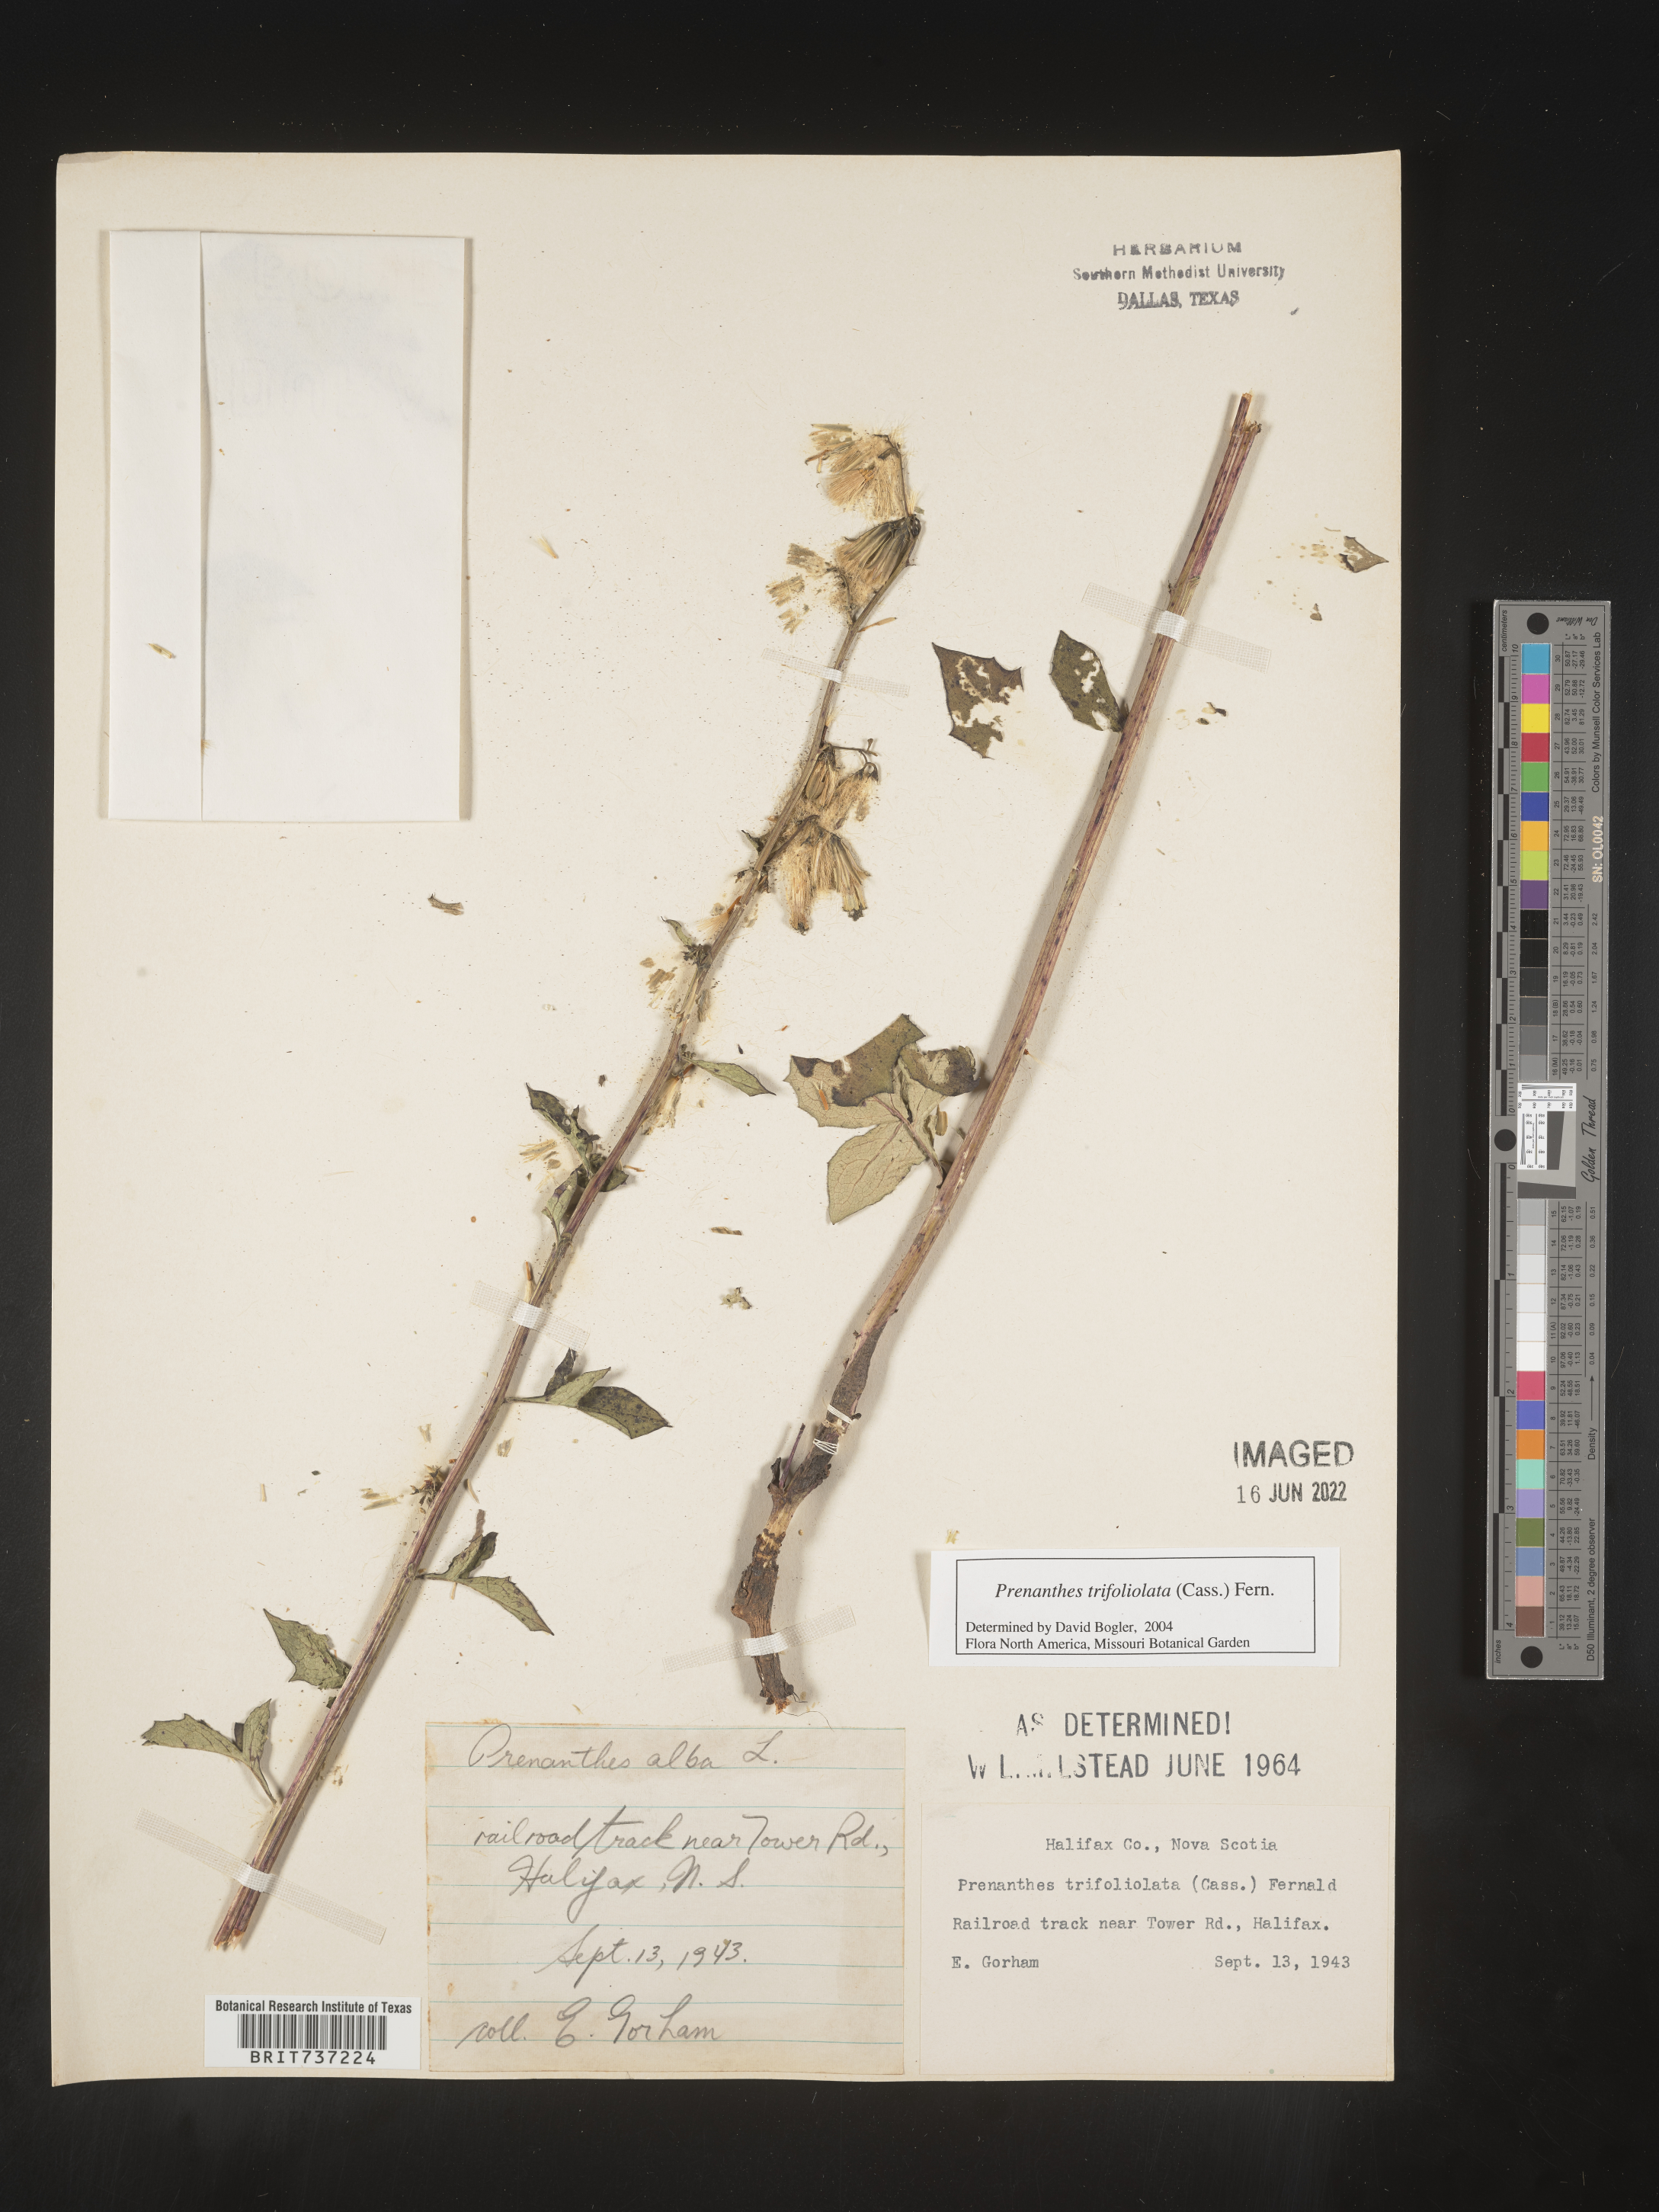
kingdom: Plantae
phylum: Tracheophyta
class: Magnoliopsida
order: Asterales
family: Asteraceae
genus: Nabalus
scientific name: Nabalus trifoliolatus
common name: Gall-of-the-earth
